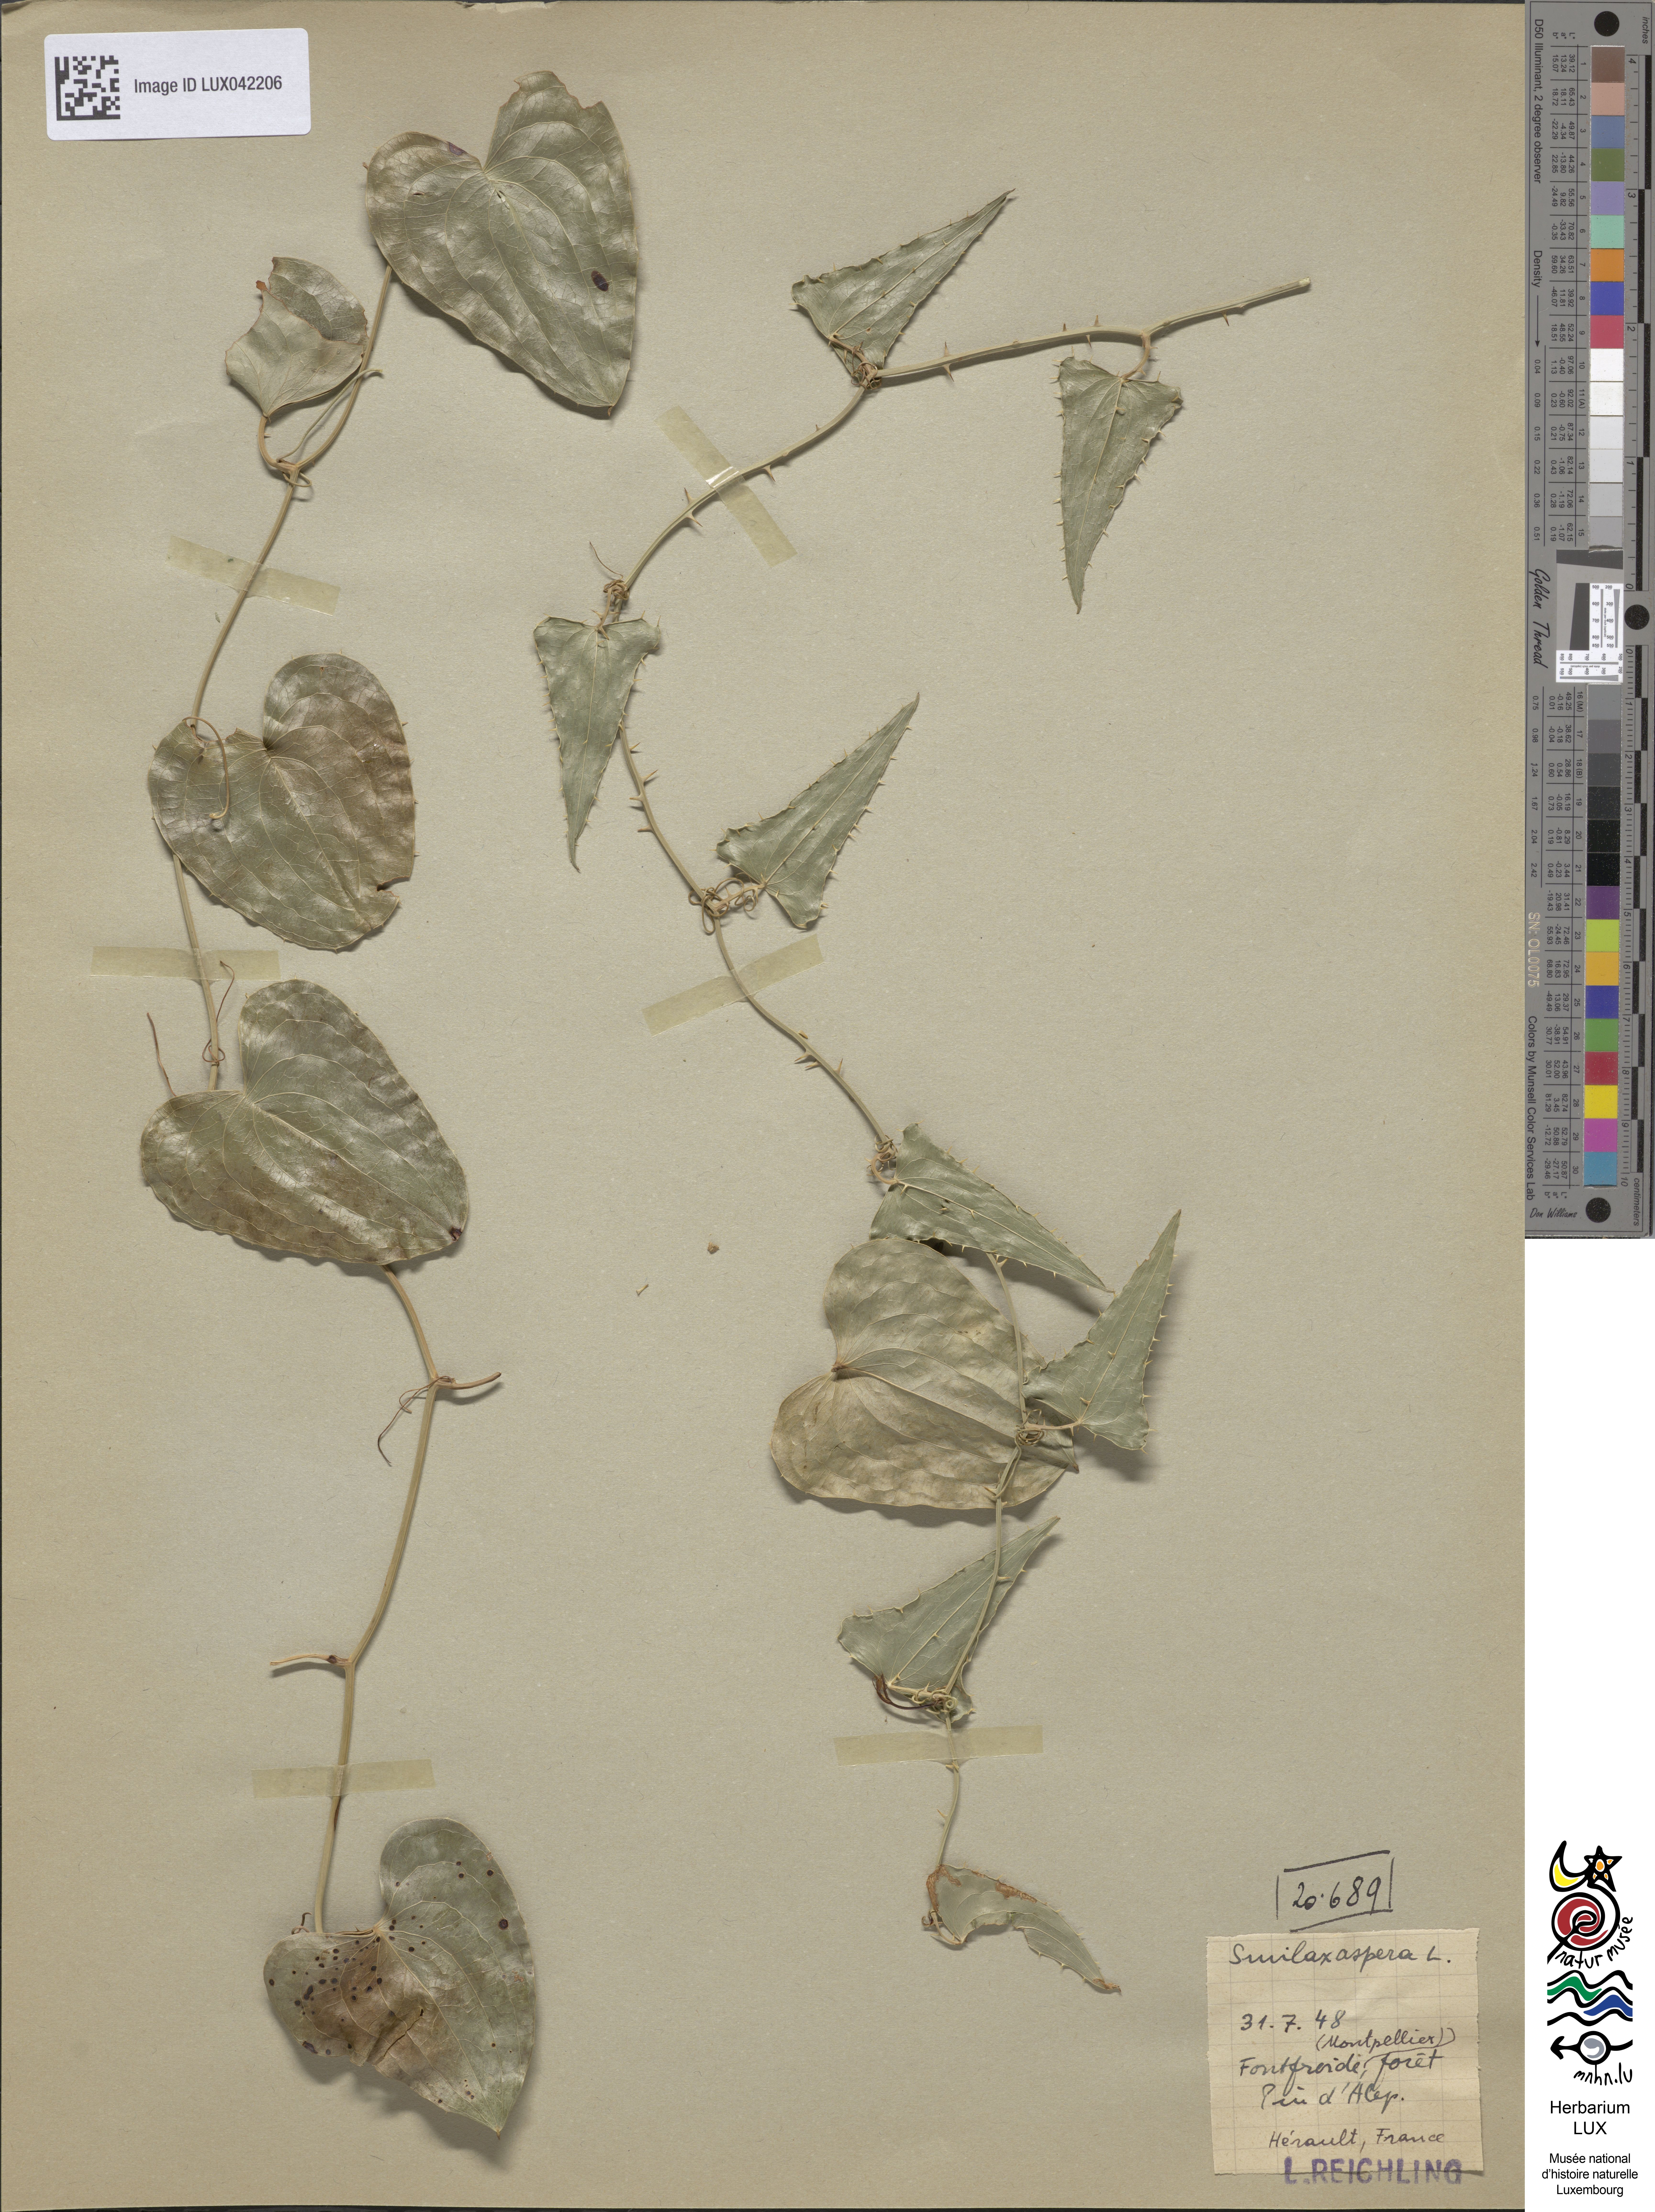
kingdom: Plantae
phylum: Tracheophyta
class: Liliopsida
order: Liliales
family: Smilacaceae
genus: Smilax
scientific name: Smilax aspera
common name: Common smilax
